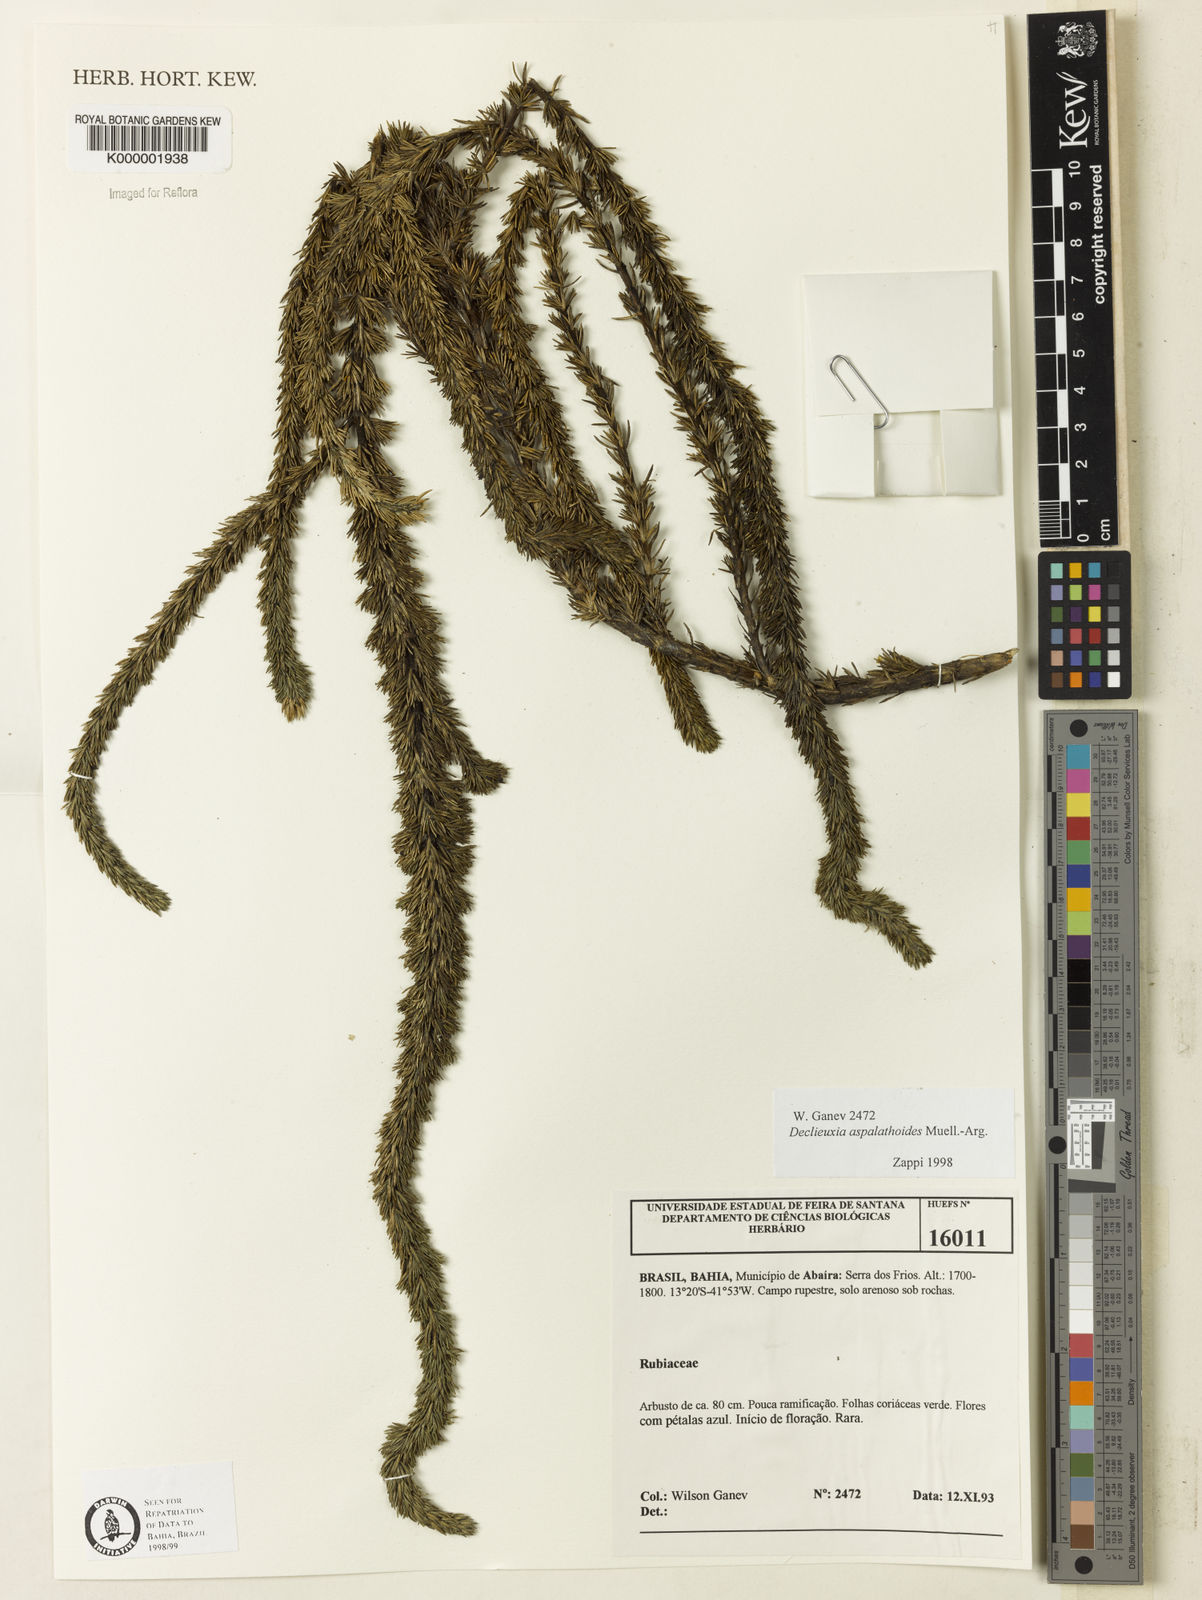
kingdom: Plantae
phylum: Tracheophyta
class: Magnoliopsida
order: Gentianales
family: Rubiaceae
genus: Declieuxia
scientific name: Declieuxia aspalathoides
